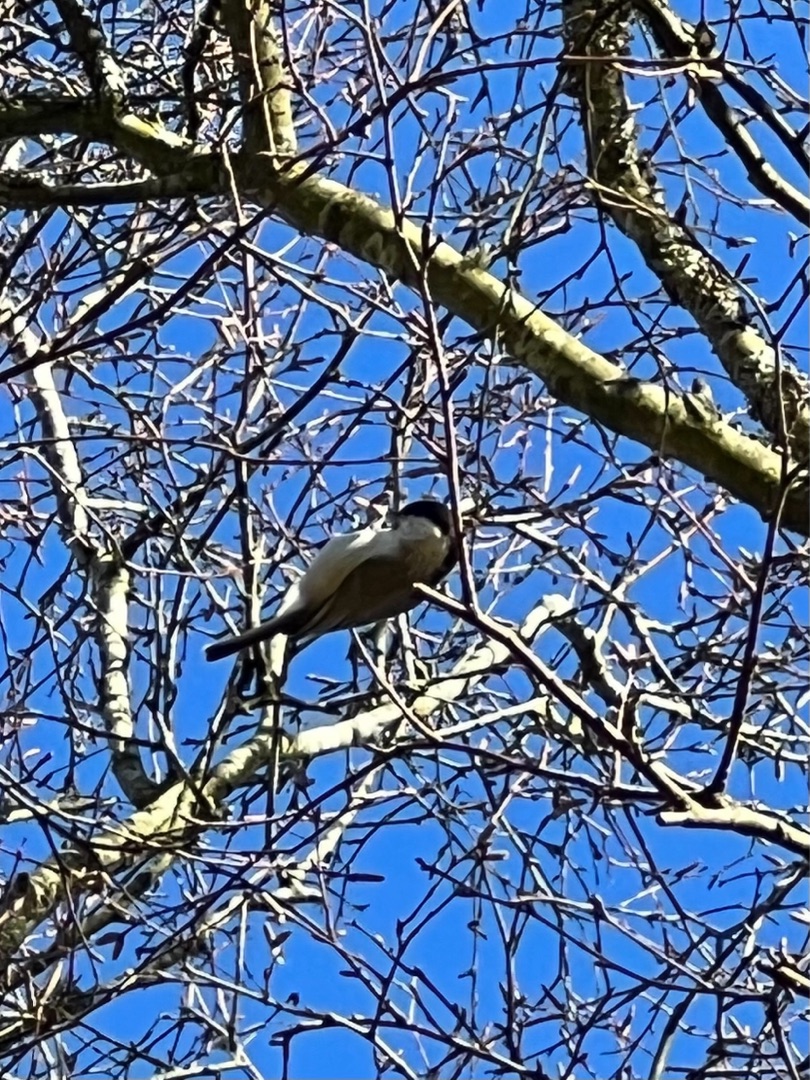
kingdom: Animalia
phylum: Chordata
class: Aves
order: Passeriformes
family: Paridae
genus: Poecile
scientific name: Poecile palustris
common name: Sumpmejse
